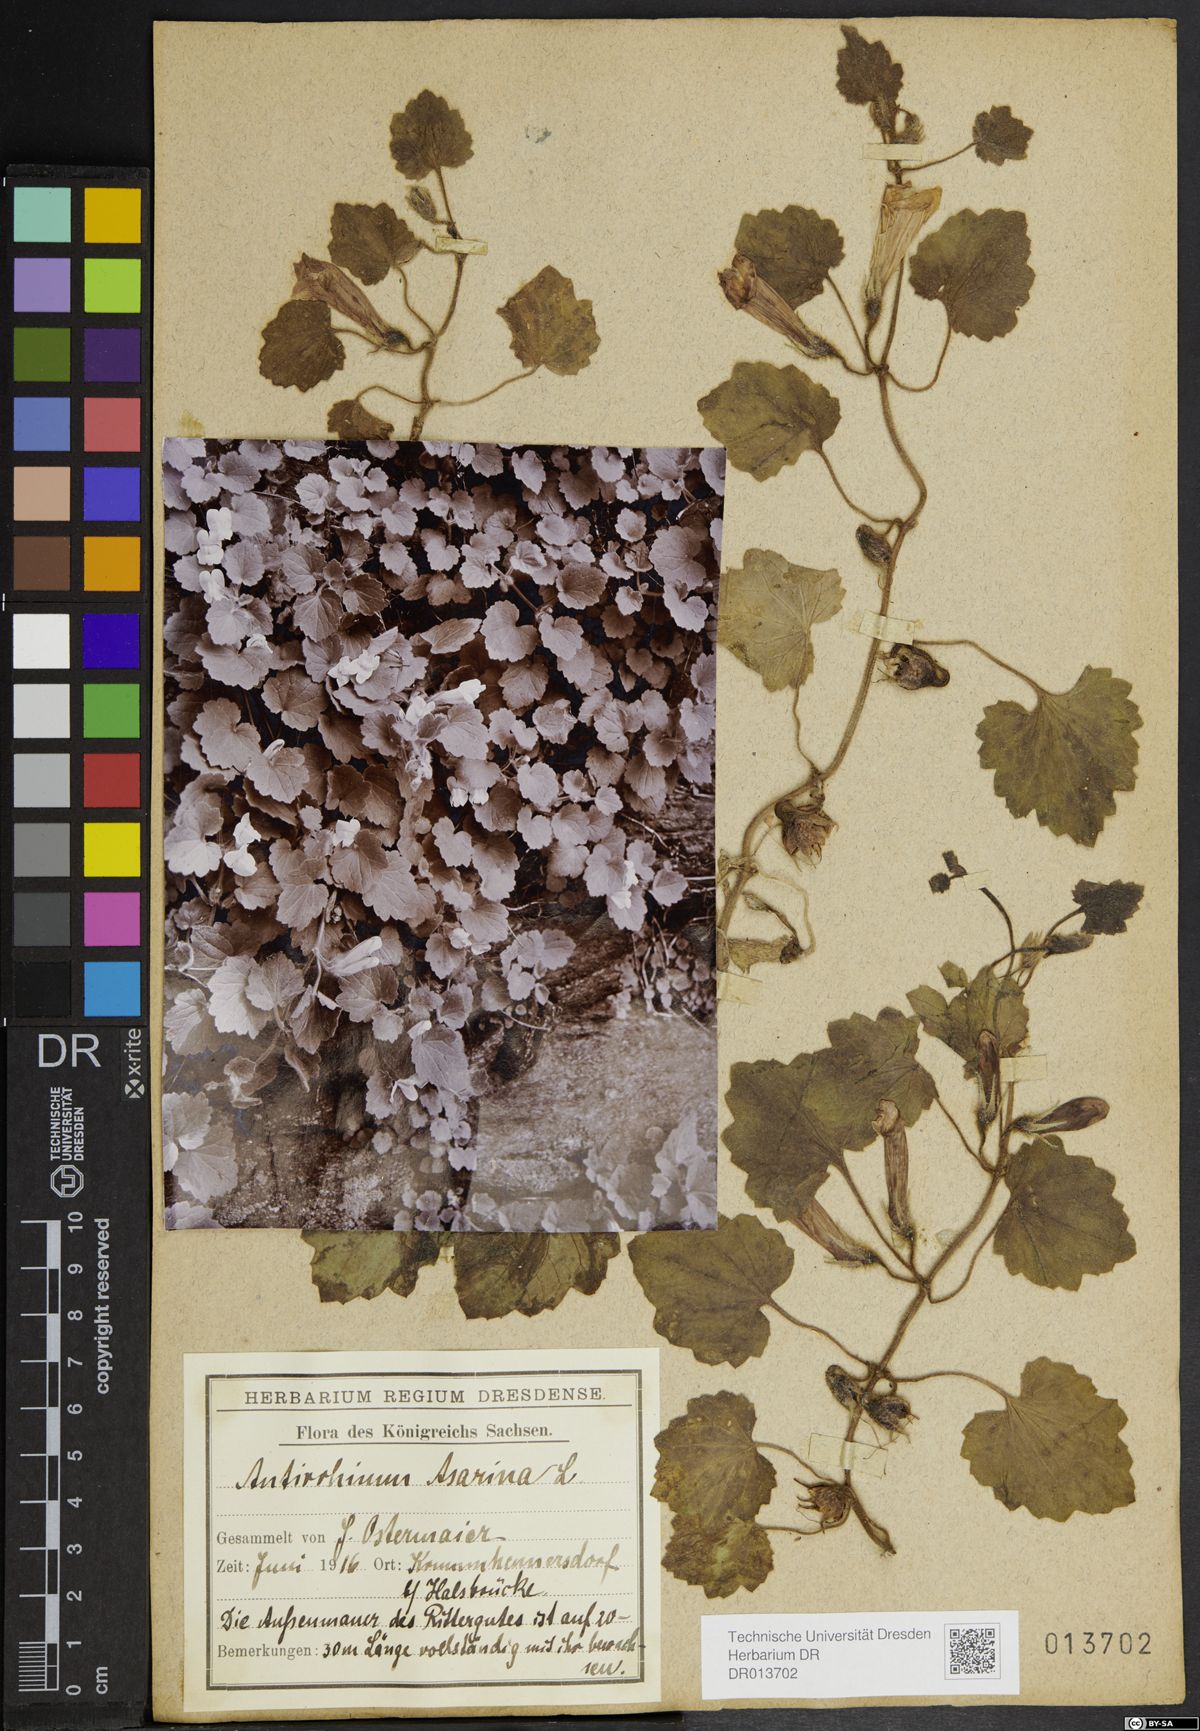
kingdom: Plantae
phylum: Tracheophyta
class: Magnoliopsida
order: Lamiales
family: Plantaginaceae
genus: Asarina
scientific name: Asarina procumbens
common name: Trailing snapdragon
